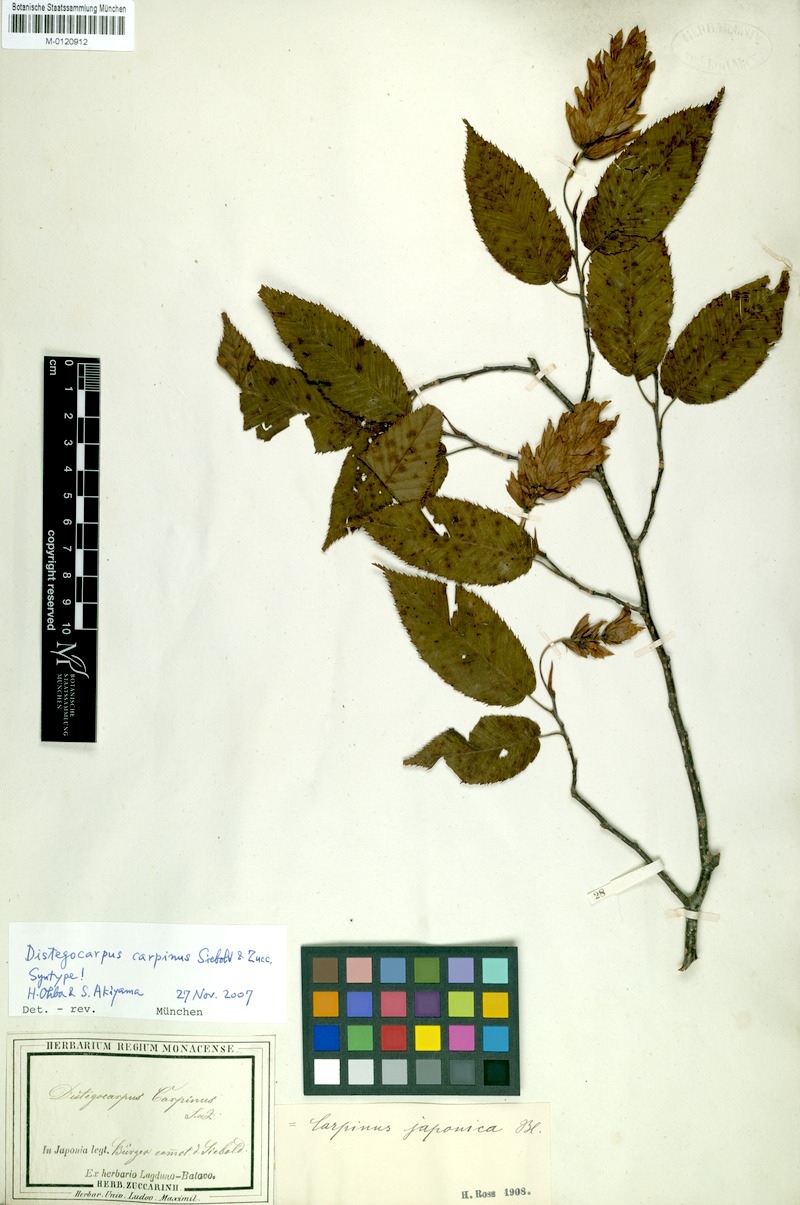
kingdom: Plantae
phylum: Tracheophyta
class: Magnoliopsida
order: Fagales
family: Betulaceae
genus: Carpinus
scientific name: Carpinus japonica
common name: Japanese hornbeam
